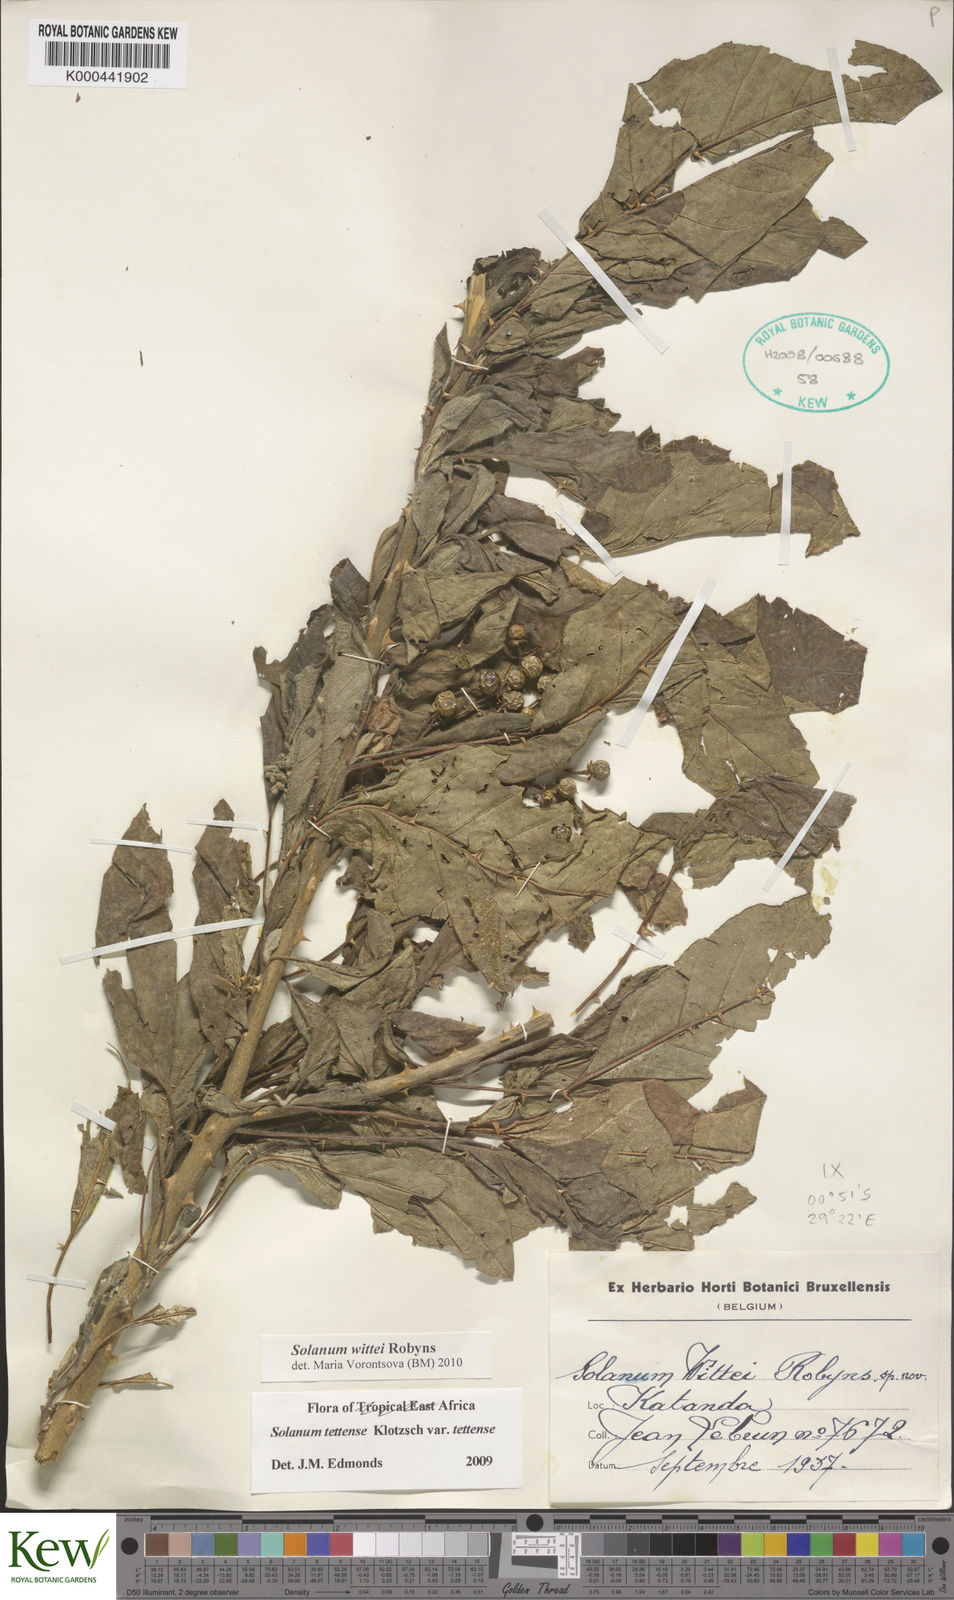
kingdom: Plantae
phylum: Tracheophyta
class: Magnoliopsida
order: Solanales
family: Solanaceae
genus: Solanum
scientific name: Solanum wittei
